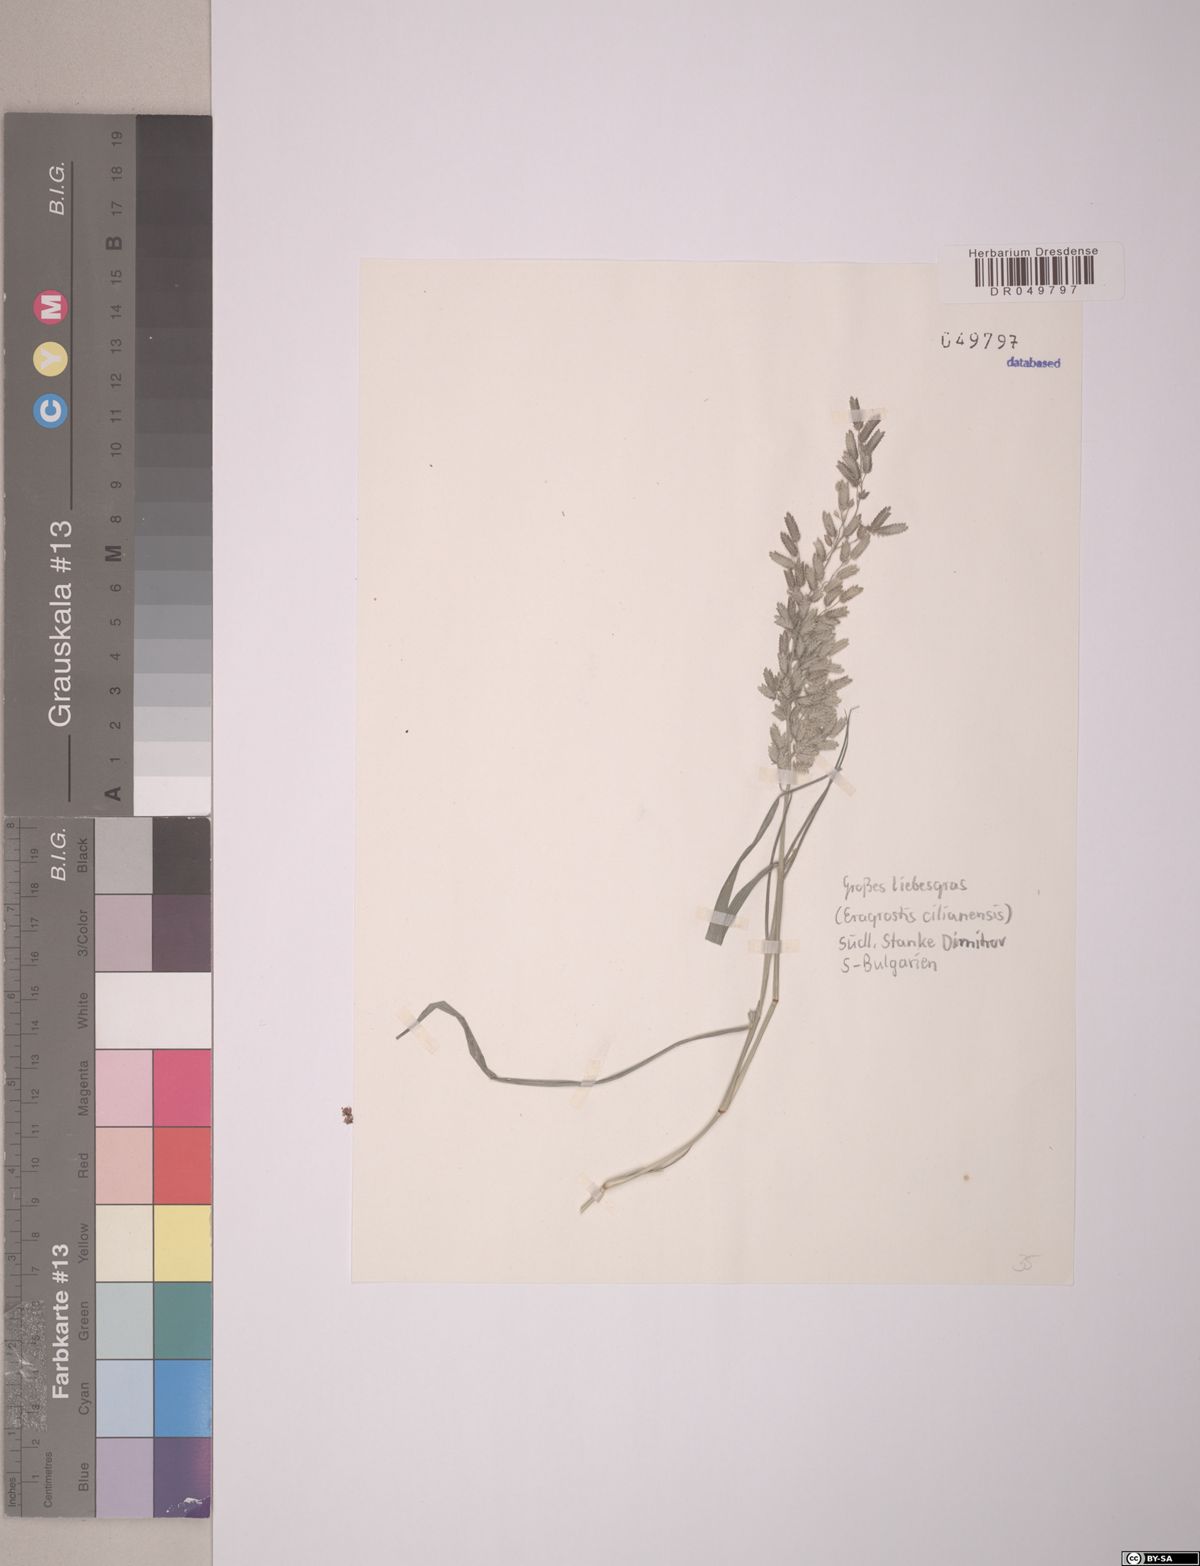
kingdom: Plantae
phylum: Tracheophyta
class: Liliopsida
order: Poales
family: Poaceae
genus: Eragrostis
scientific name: Eragrostis cilianensis
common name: Stinkgrass
